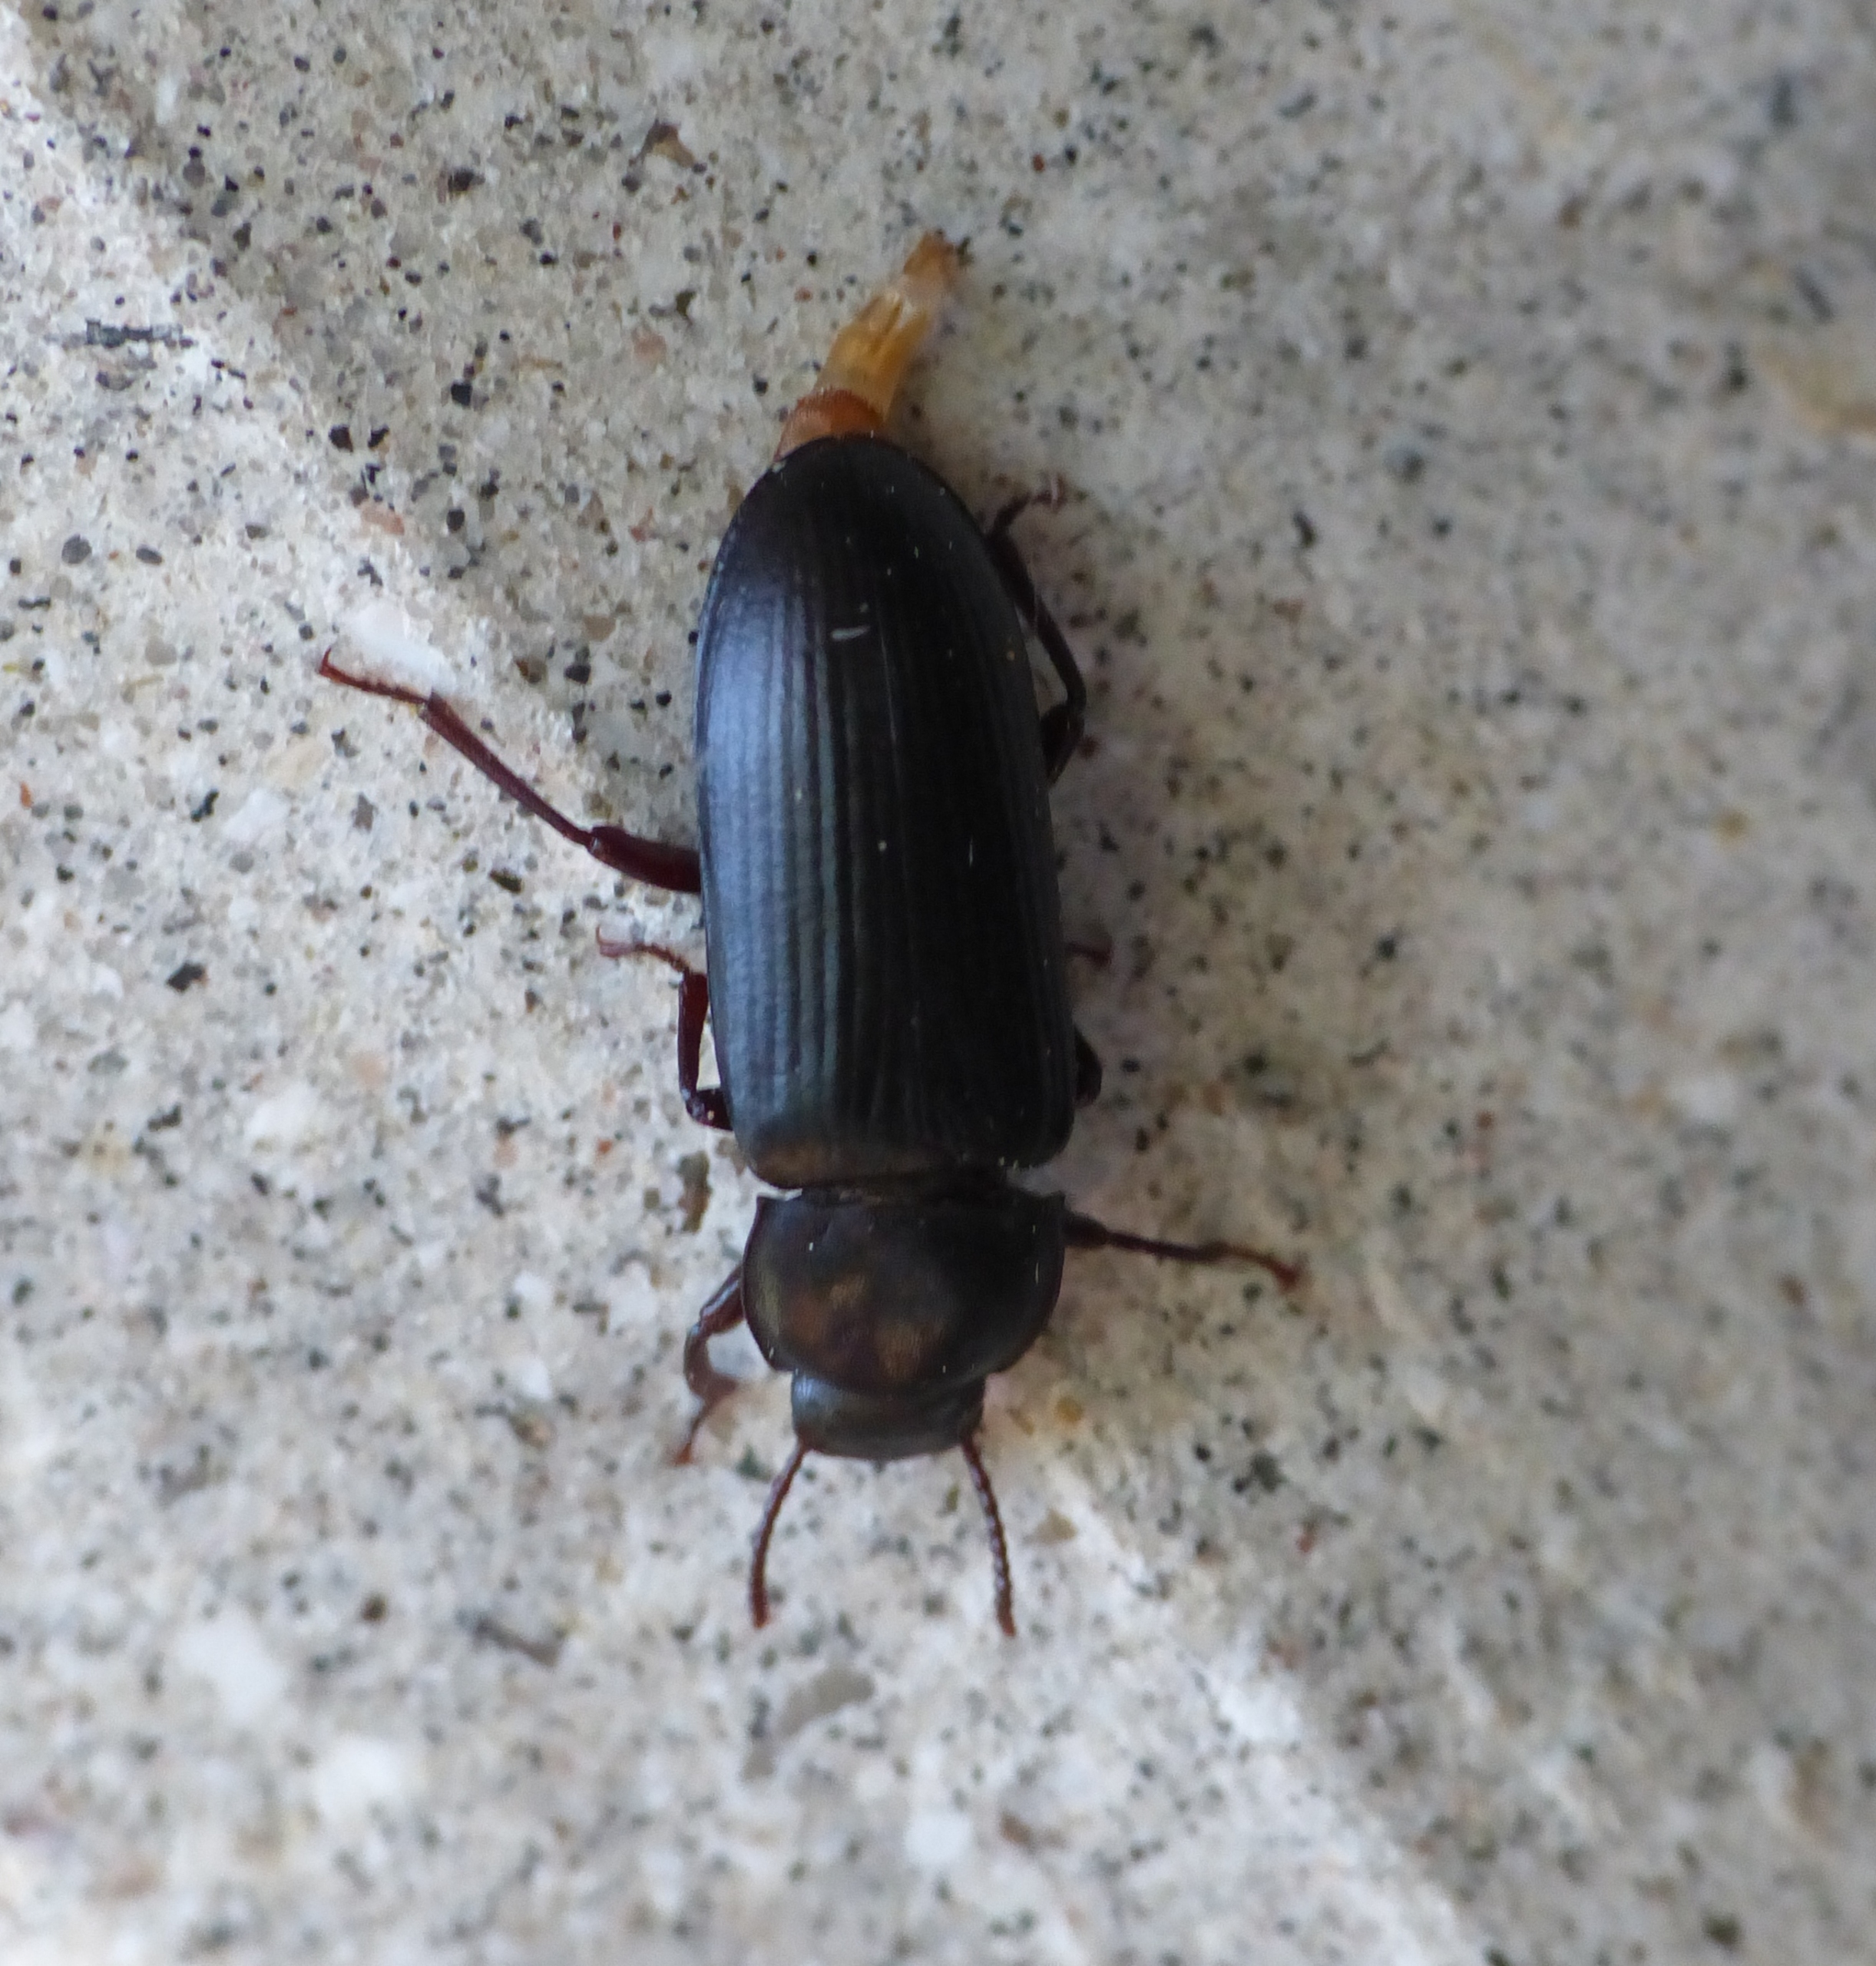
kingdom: Animalia
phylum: Arthropoda
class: Insecta
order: Coleoptera
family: Tenebrionidae
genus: Tenebrio
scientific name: Tenebrio molitor
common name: Melskrubbe
